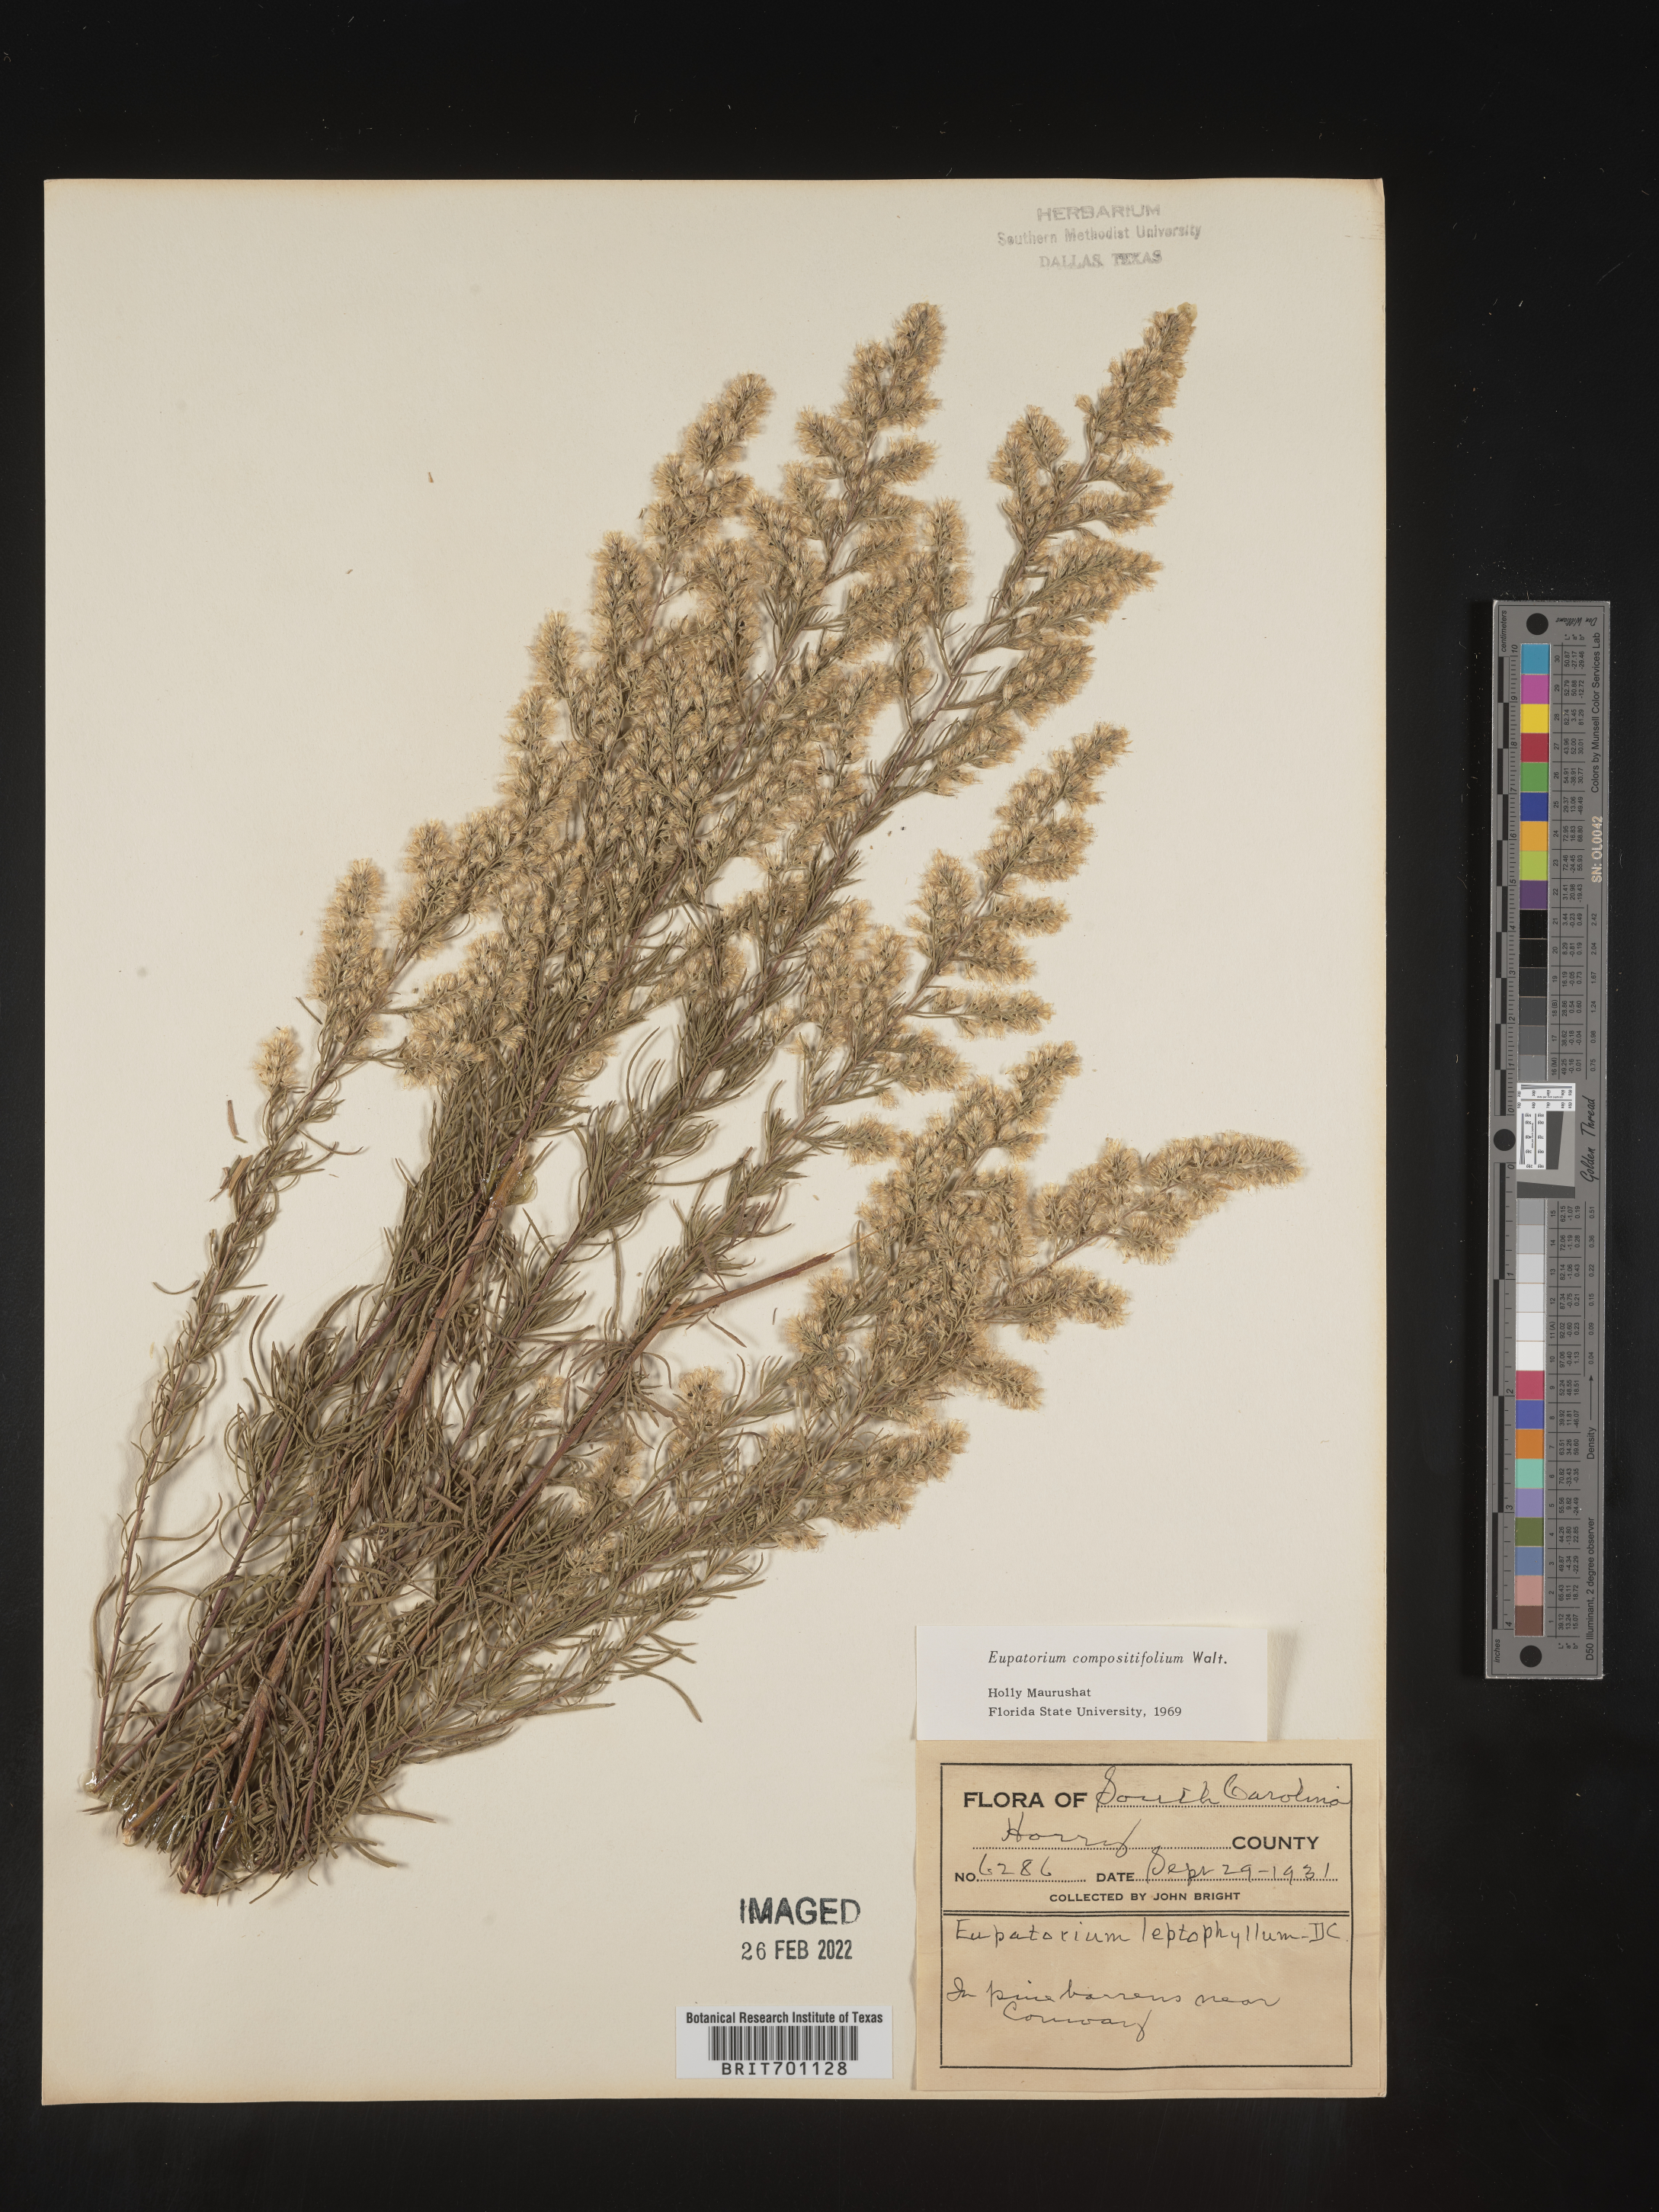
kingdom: Plantae
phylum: Tracheophyta
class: Magnoliopsida
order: Asterales
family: Asteraceae
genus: Eupatorium
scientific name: Eupatorium compositifolium
